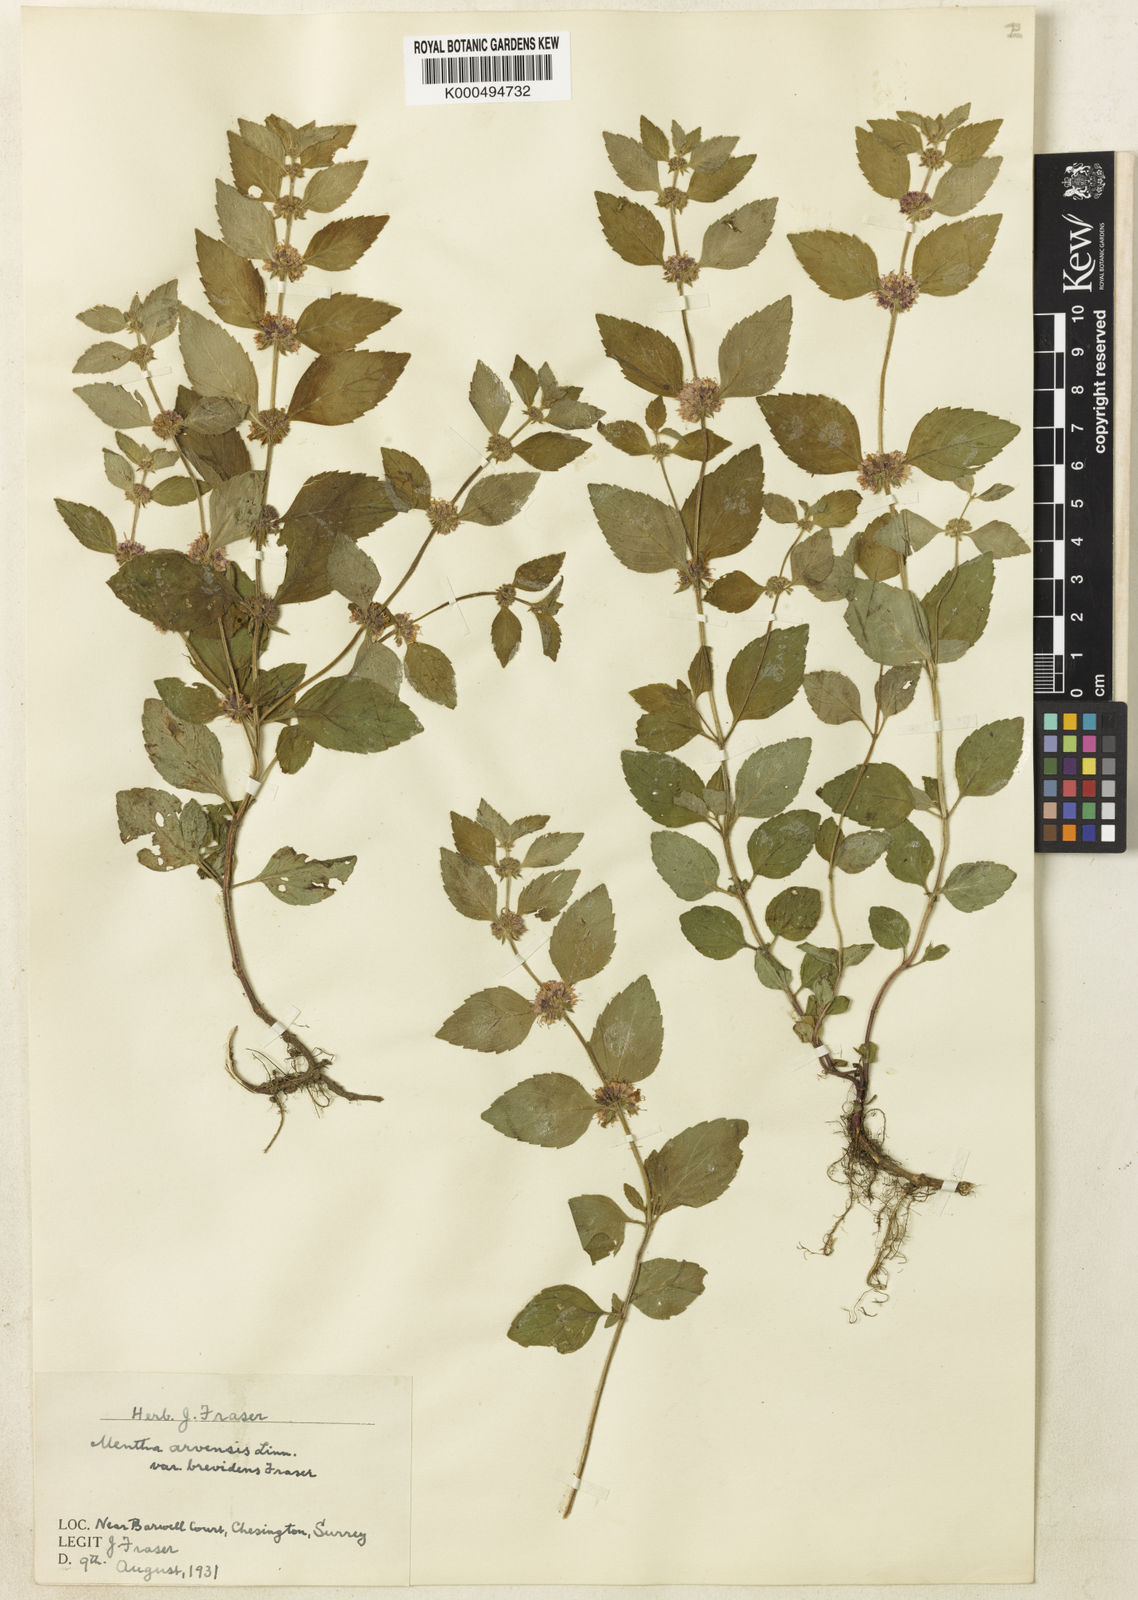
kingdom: Plantae
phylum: Tracheophyta
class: Magnoliopsida
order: Lamiales
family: Lamiaceae
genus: Mentha
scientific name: Mentha arvensis
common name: Corn mint
